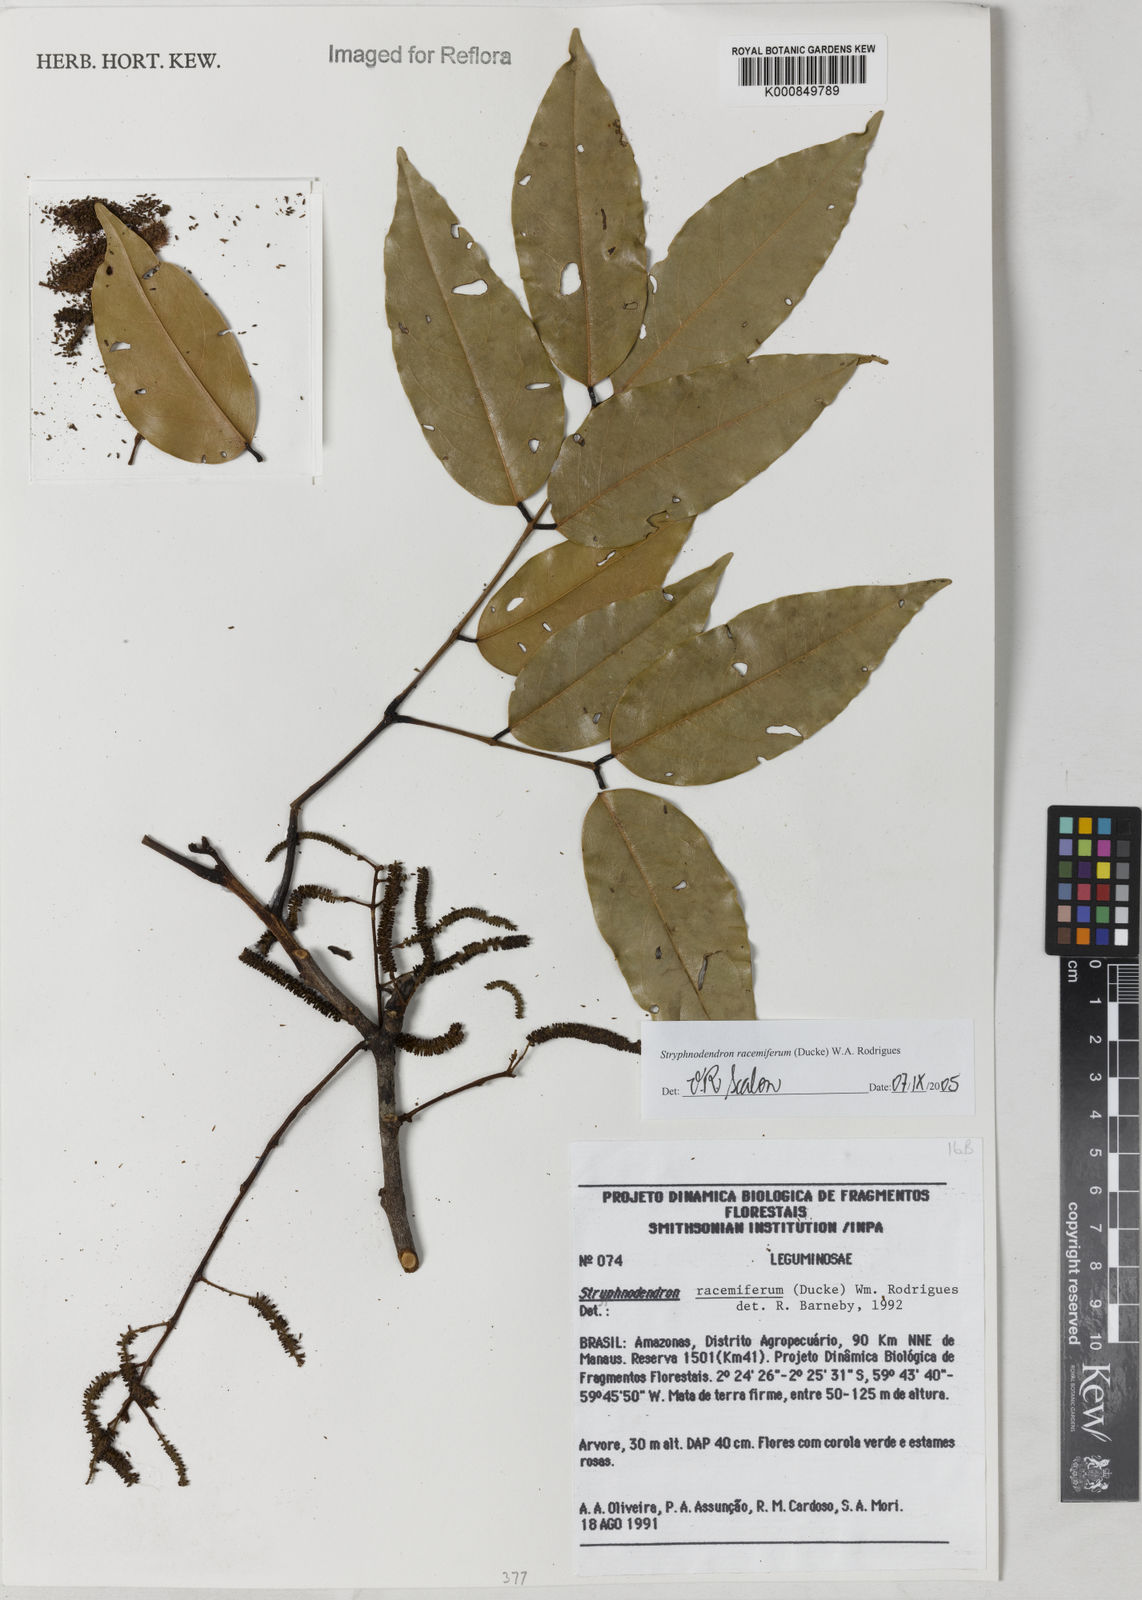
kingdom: Plantae
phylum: Tracheophyta
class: Magnoliopsida
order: Fabales
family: Fabaceae
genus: Stryphnodendron
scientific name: Stryphnodendron
